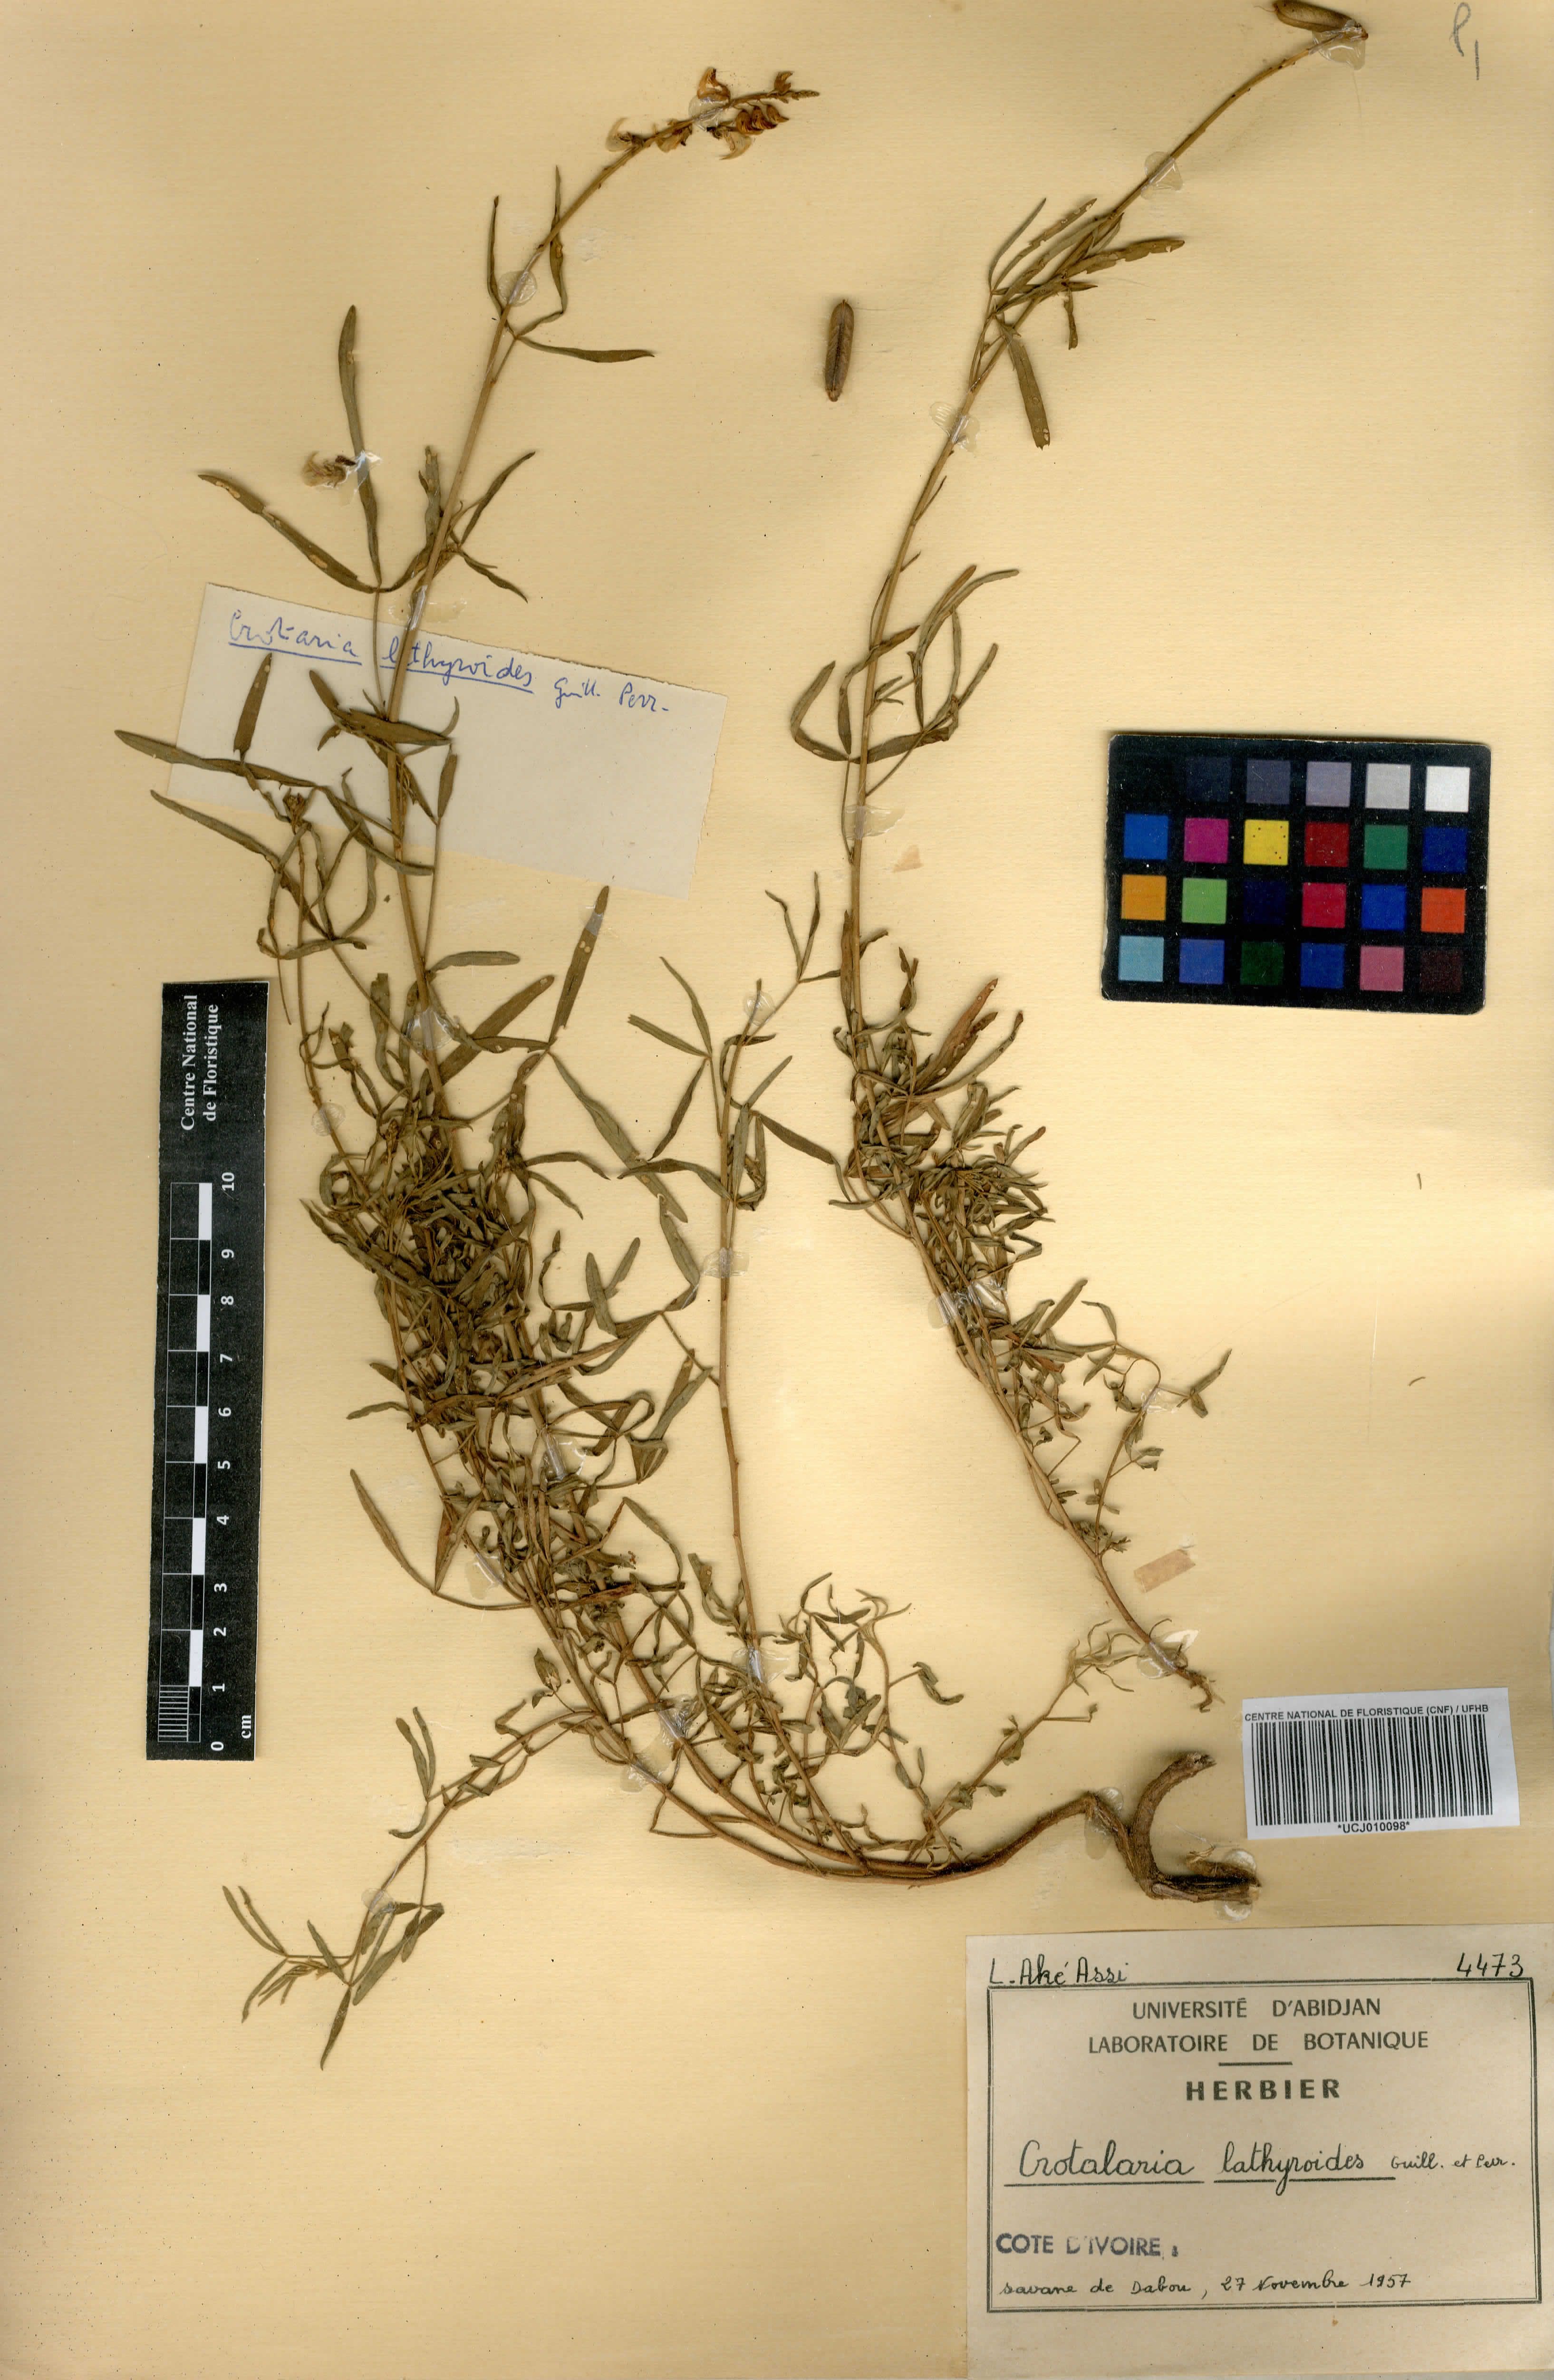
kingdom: Plantae
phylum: Tracheophyta
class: Magnoliopsida
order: Fabales
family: Fabaceae
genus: Crotalaria
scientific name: Crotalaria lathyroides
